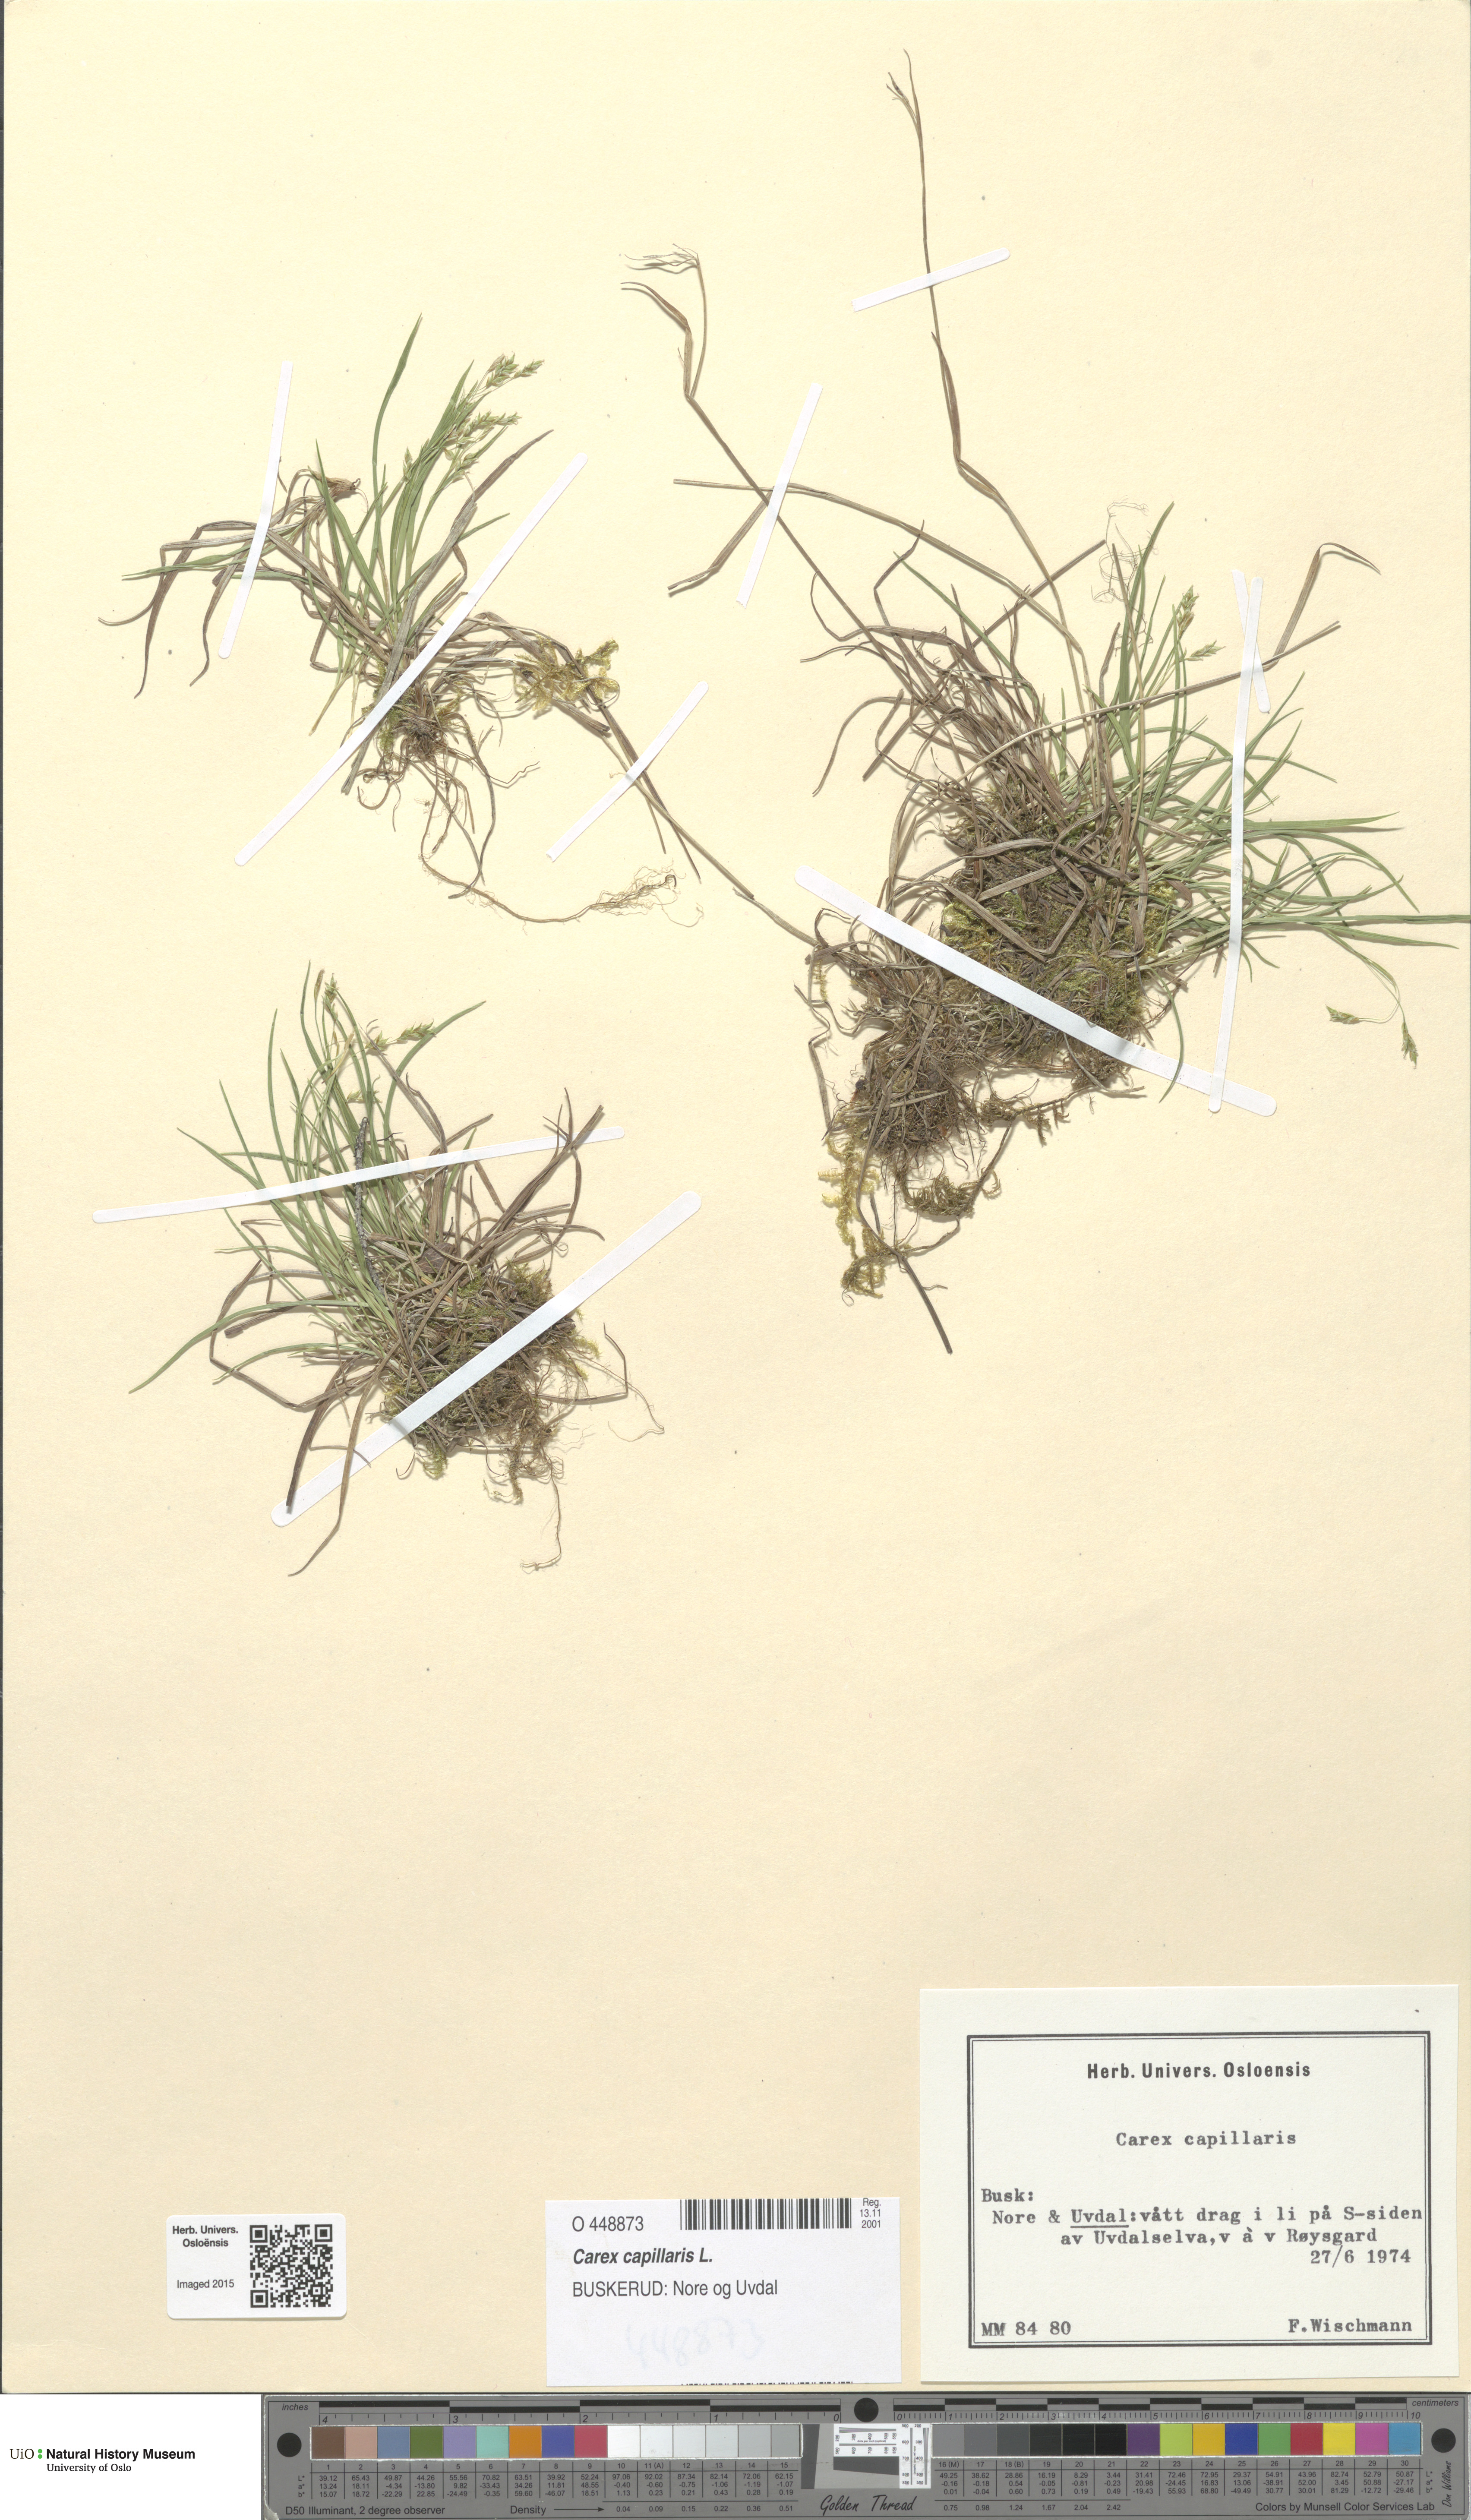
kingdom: Plantae
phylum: Tracheophyta
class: Liliopsida
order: Poales
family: Cyperaceae
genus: Carex
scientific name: Carex capillaris
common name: Hair sedge
